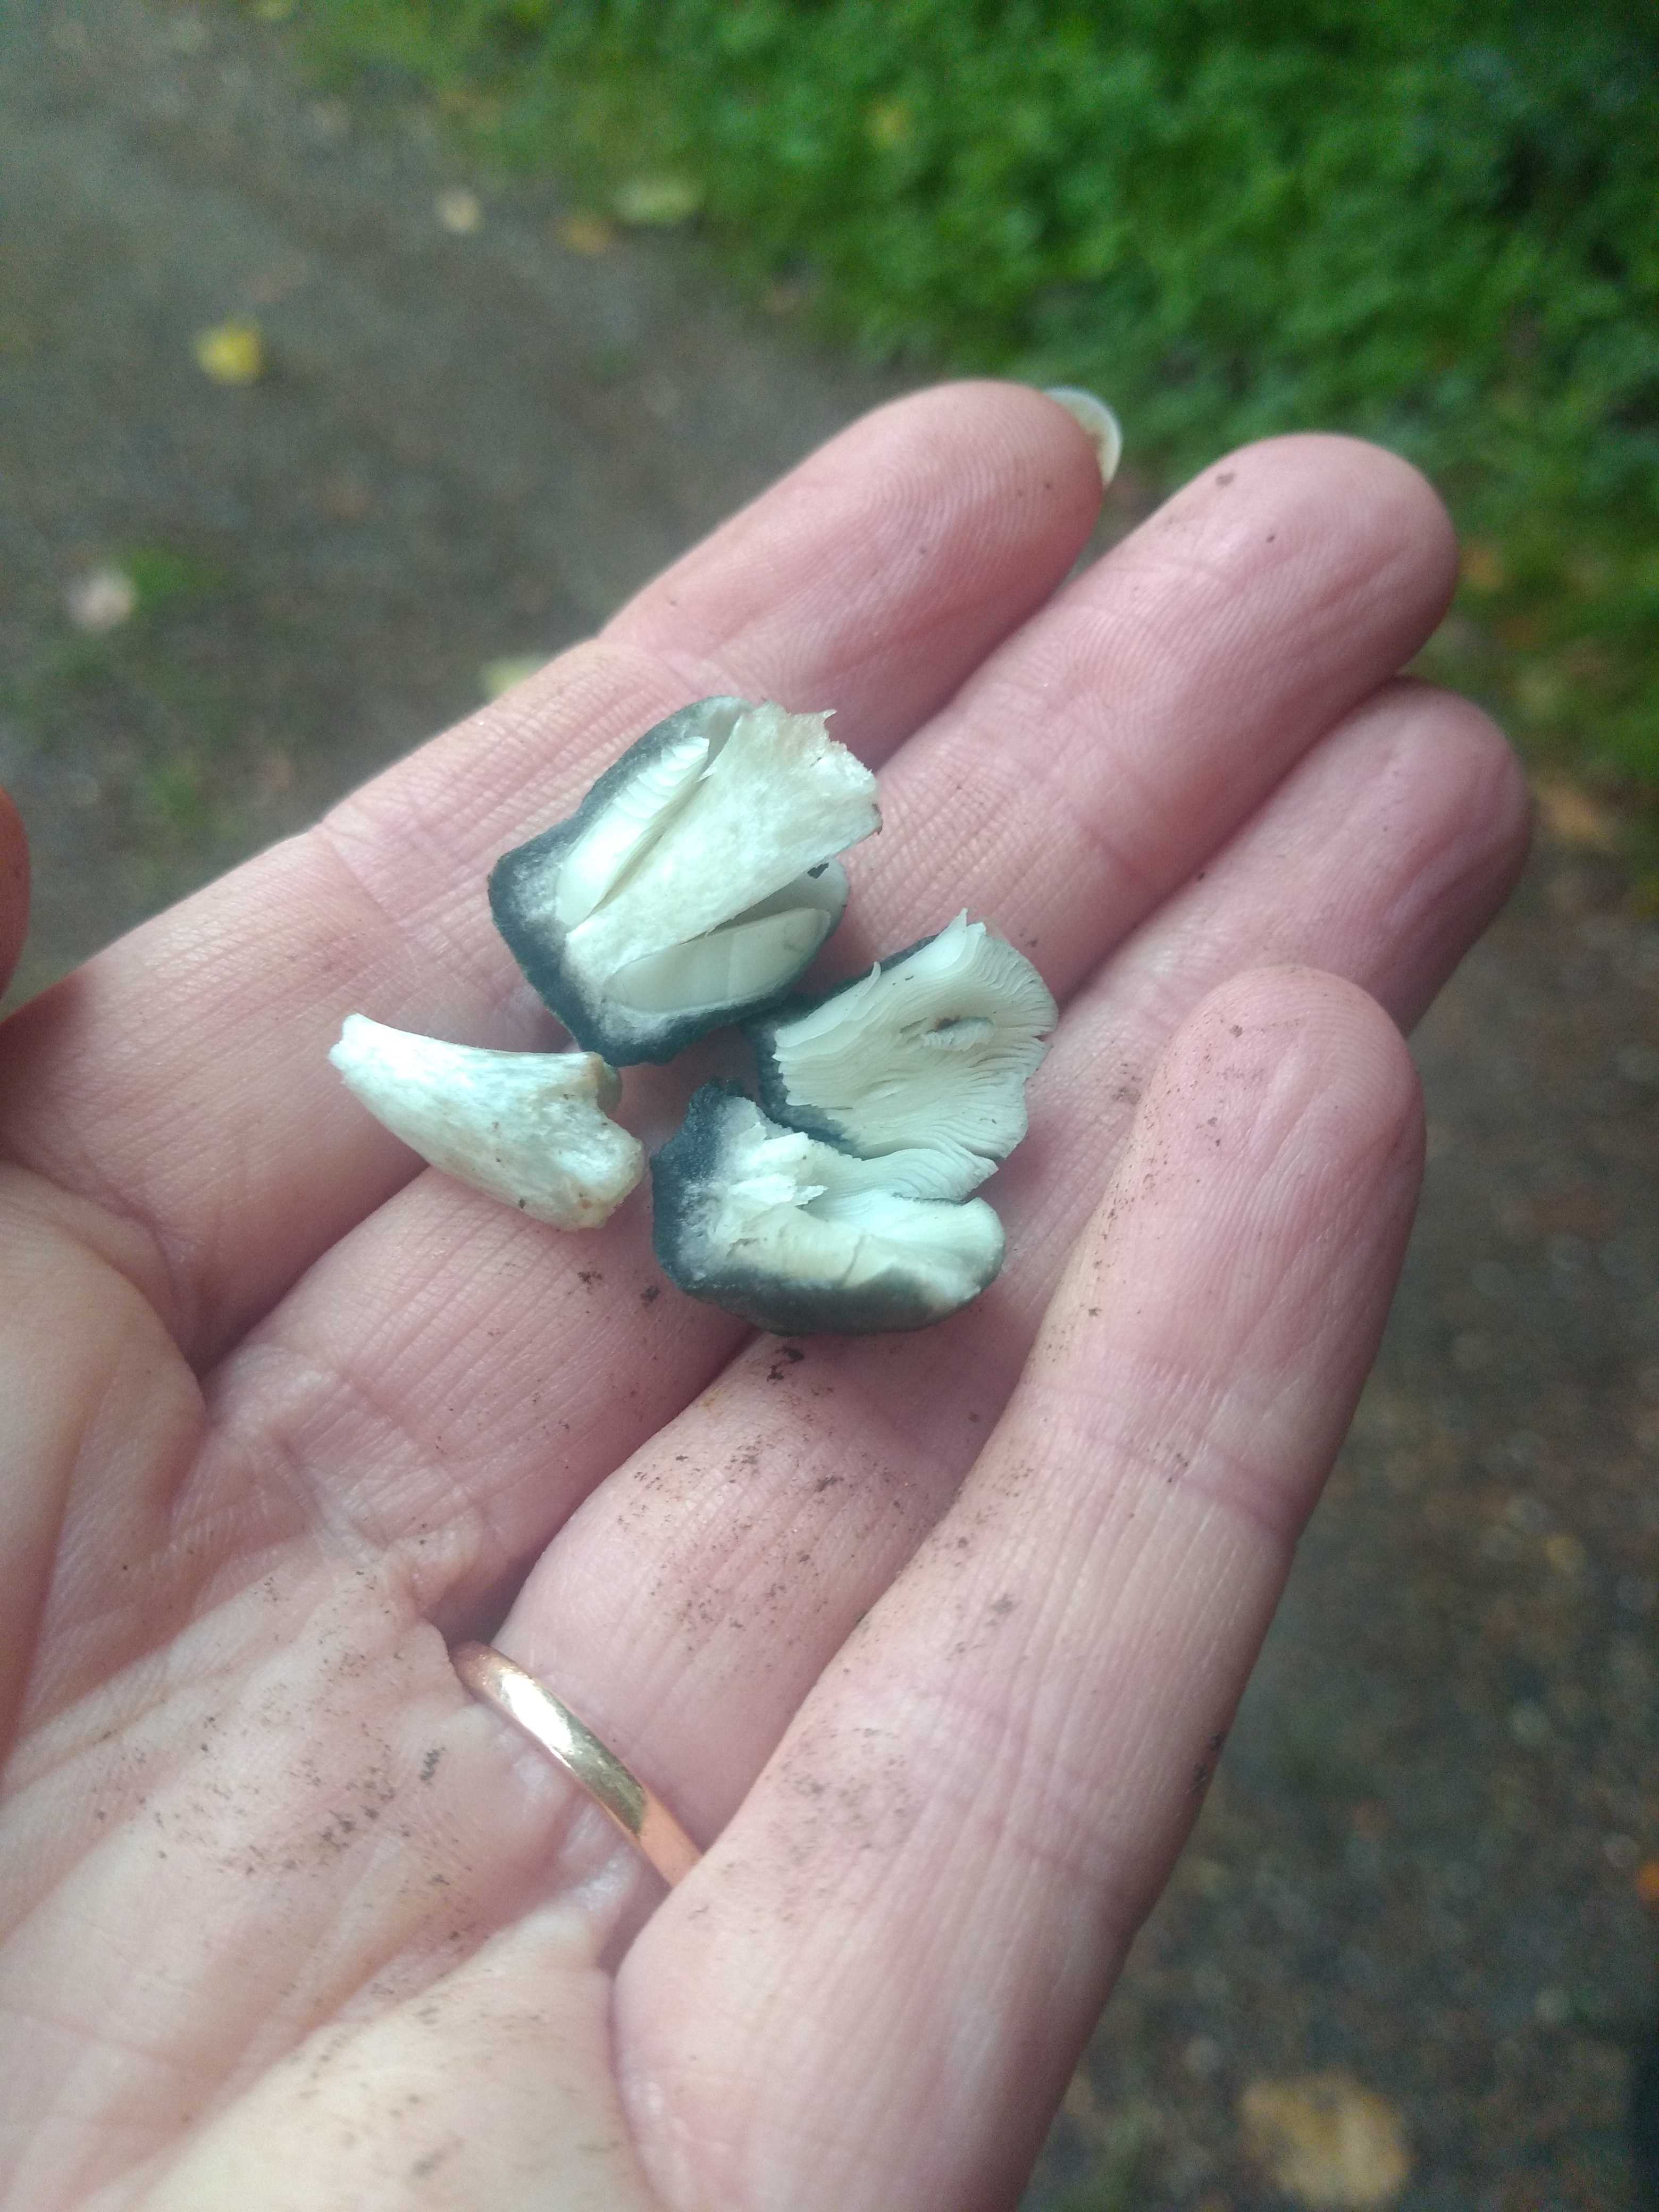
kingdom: Fungi
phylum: Basidiomycota
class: Agaricomycetes
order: Agaricales
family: Pluteaceae
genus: Pluteus
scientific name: Pluteus salicinus
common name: stiv skærmhat
